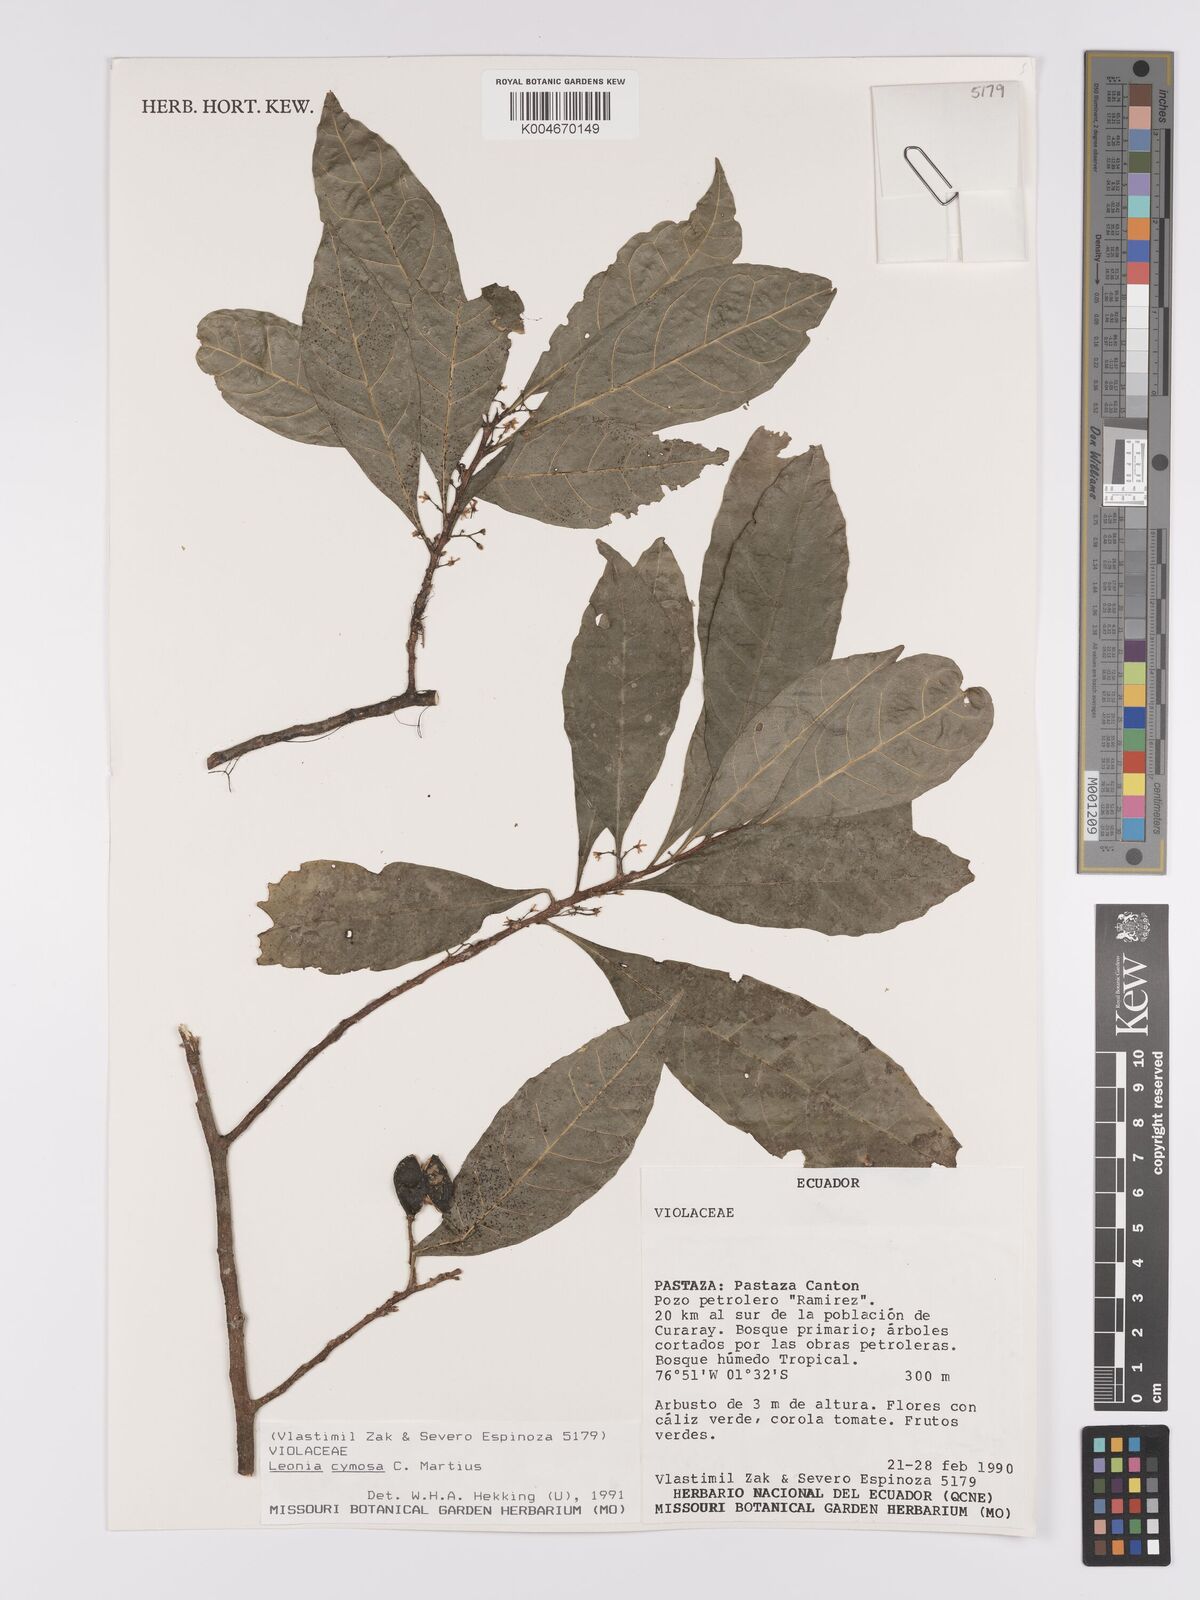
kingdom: Plantae
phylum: Tracheophyta
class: Magnoliopsida
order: Malpighiales
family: Violaceae
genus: Leonia
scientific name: Leonia cymosa
